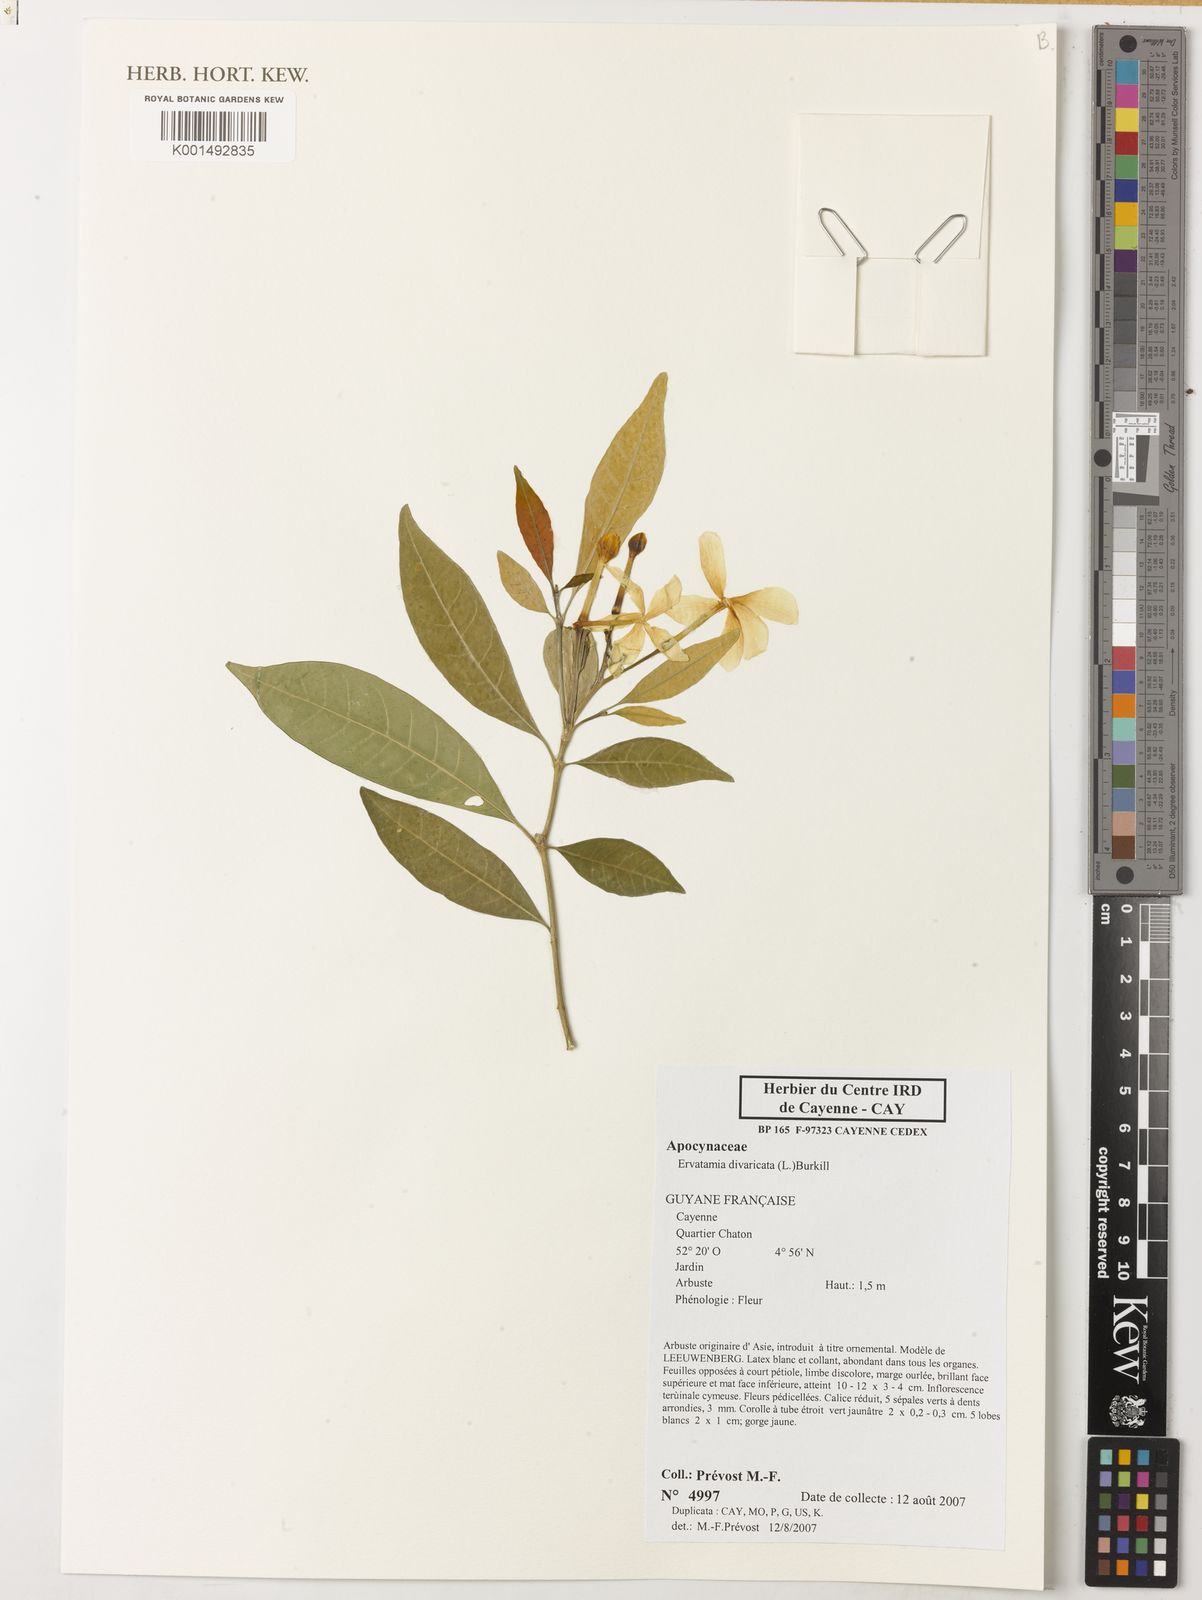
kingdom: Plantae
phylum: Tracheophyta
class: Magnoliopsida
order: Gentianales
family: Apocynaceae
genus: Tabernaemontana
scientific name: Tabernaemontana divaricata
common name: Pinwheelflower
